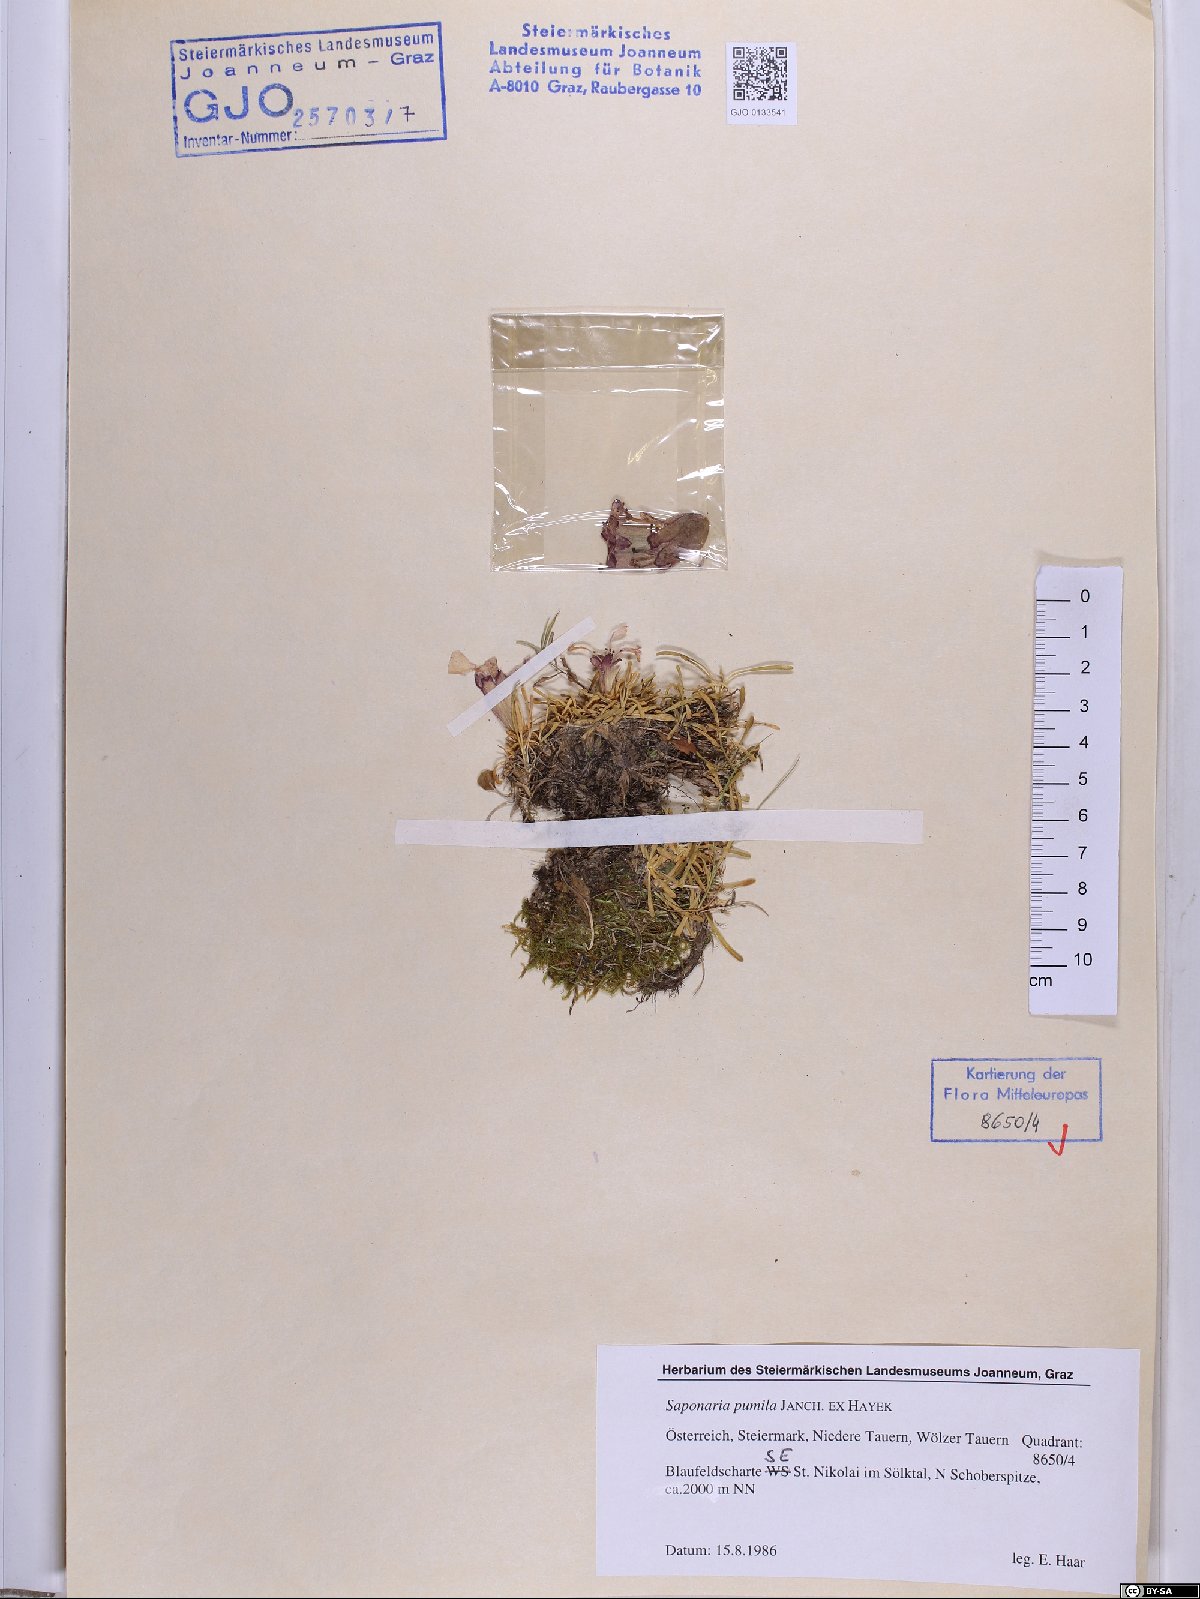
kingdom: Plantae
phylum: Tracheophyta
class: Magnoliopsida
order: Caryophyllales
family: Caryophyllaceae
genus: Saponaria
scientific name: Saponaria pumila
